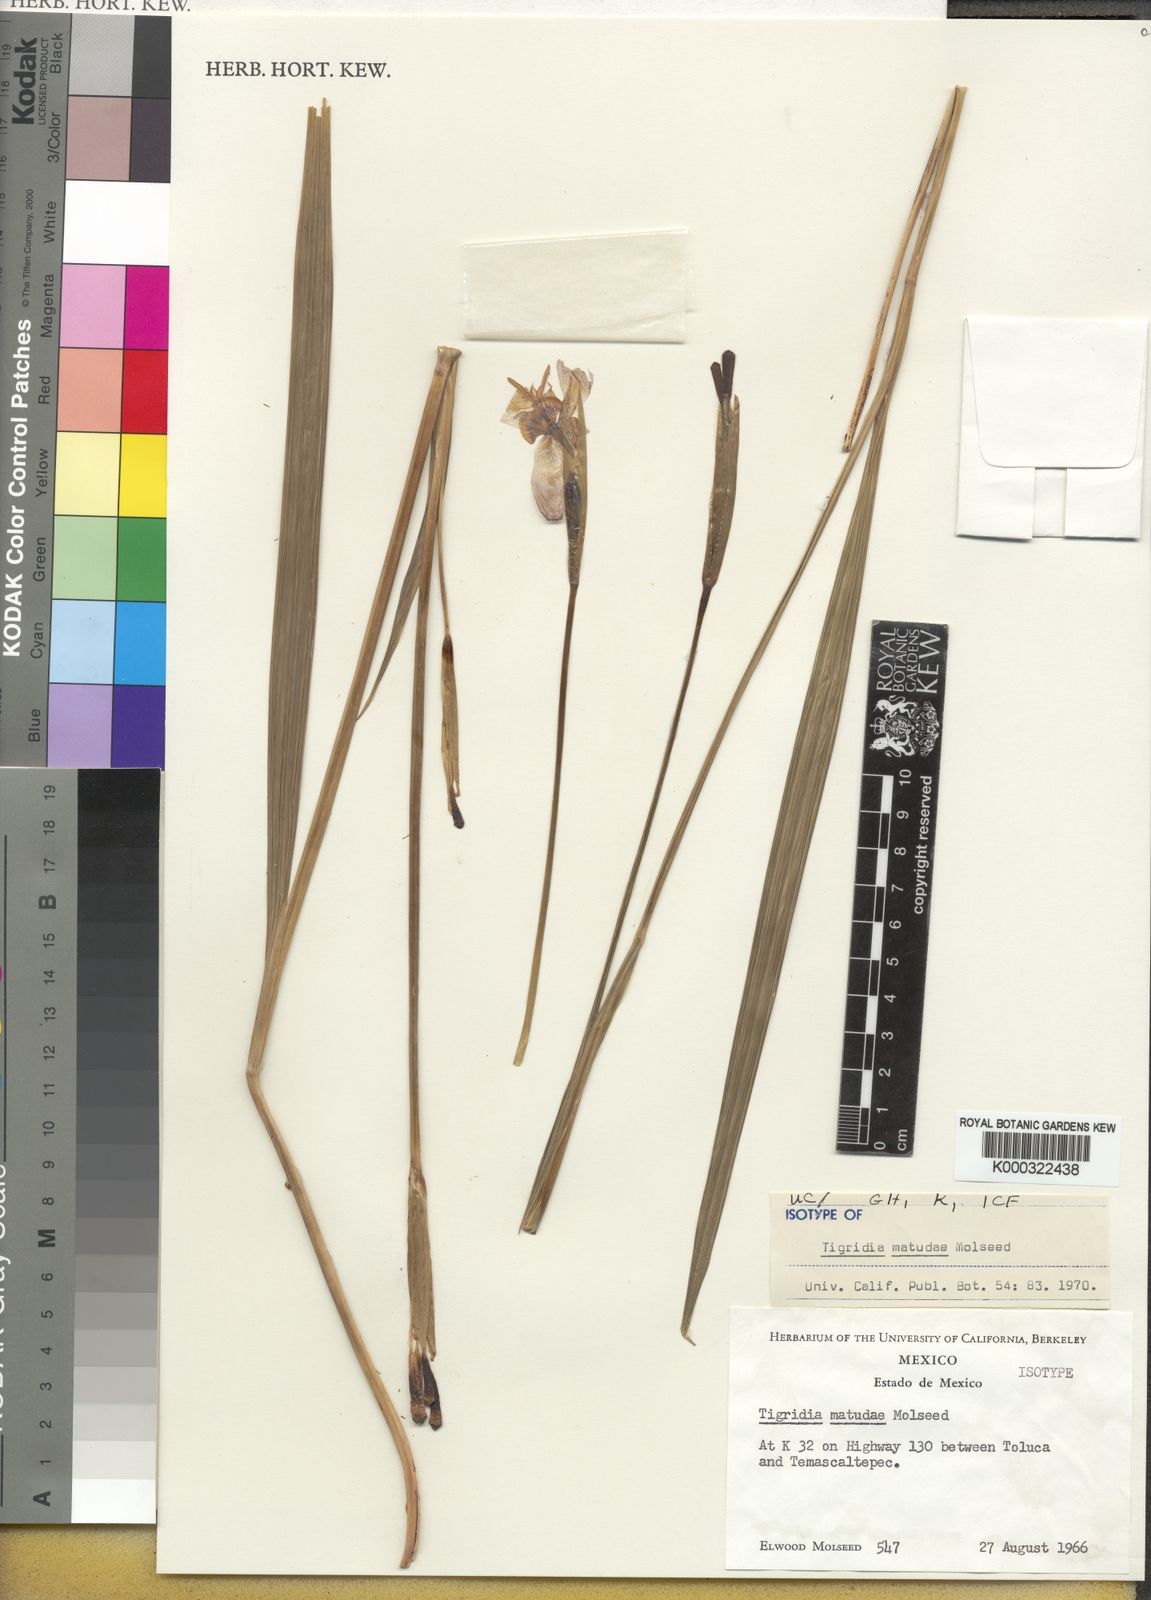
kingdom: Plantae
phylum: Tracheophyta
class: Liliopsida
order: Asparagales
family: Iridaceae
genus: Tigridia
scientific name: Tigridia matudae
